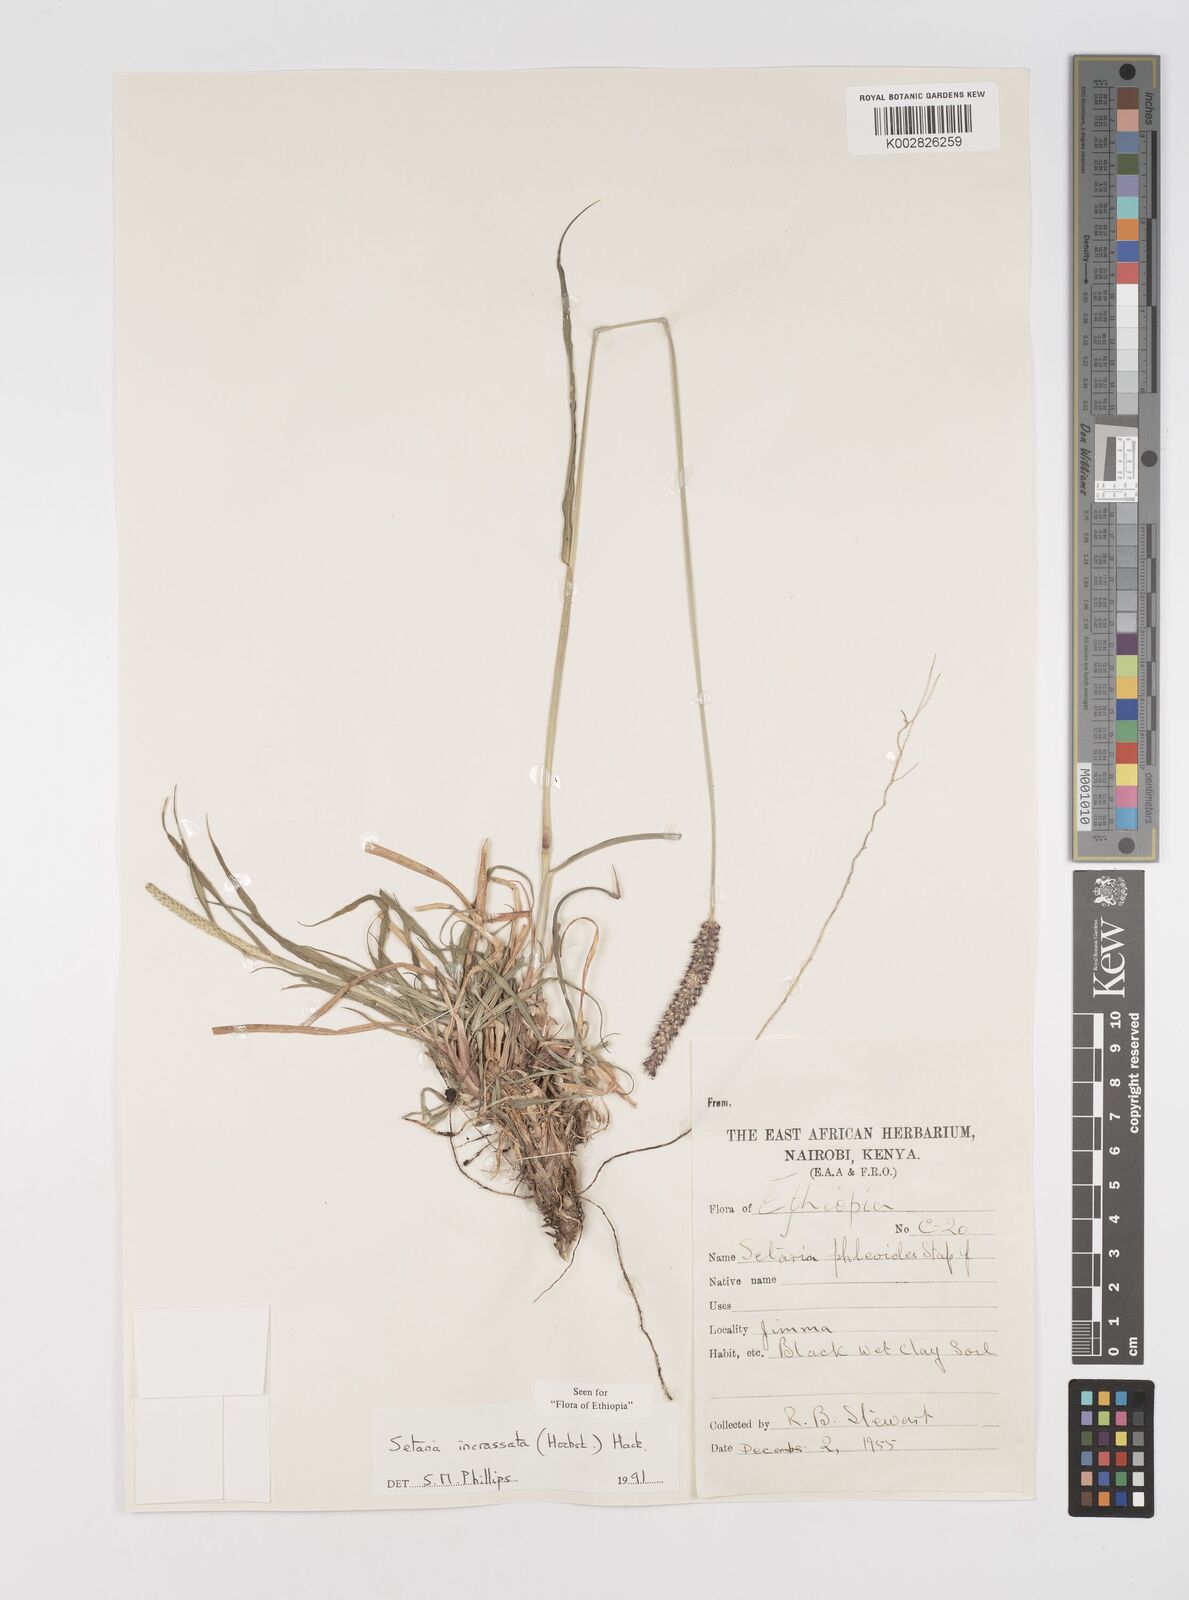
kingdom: Plantae
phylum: Tracheophyta
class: Liliopsida
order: Poales
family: Poaceae
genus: Setaria
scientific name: Setaria incrassata
